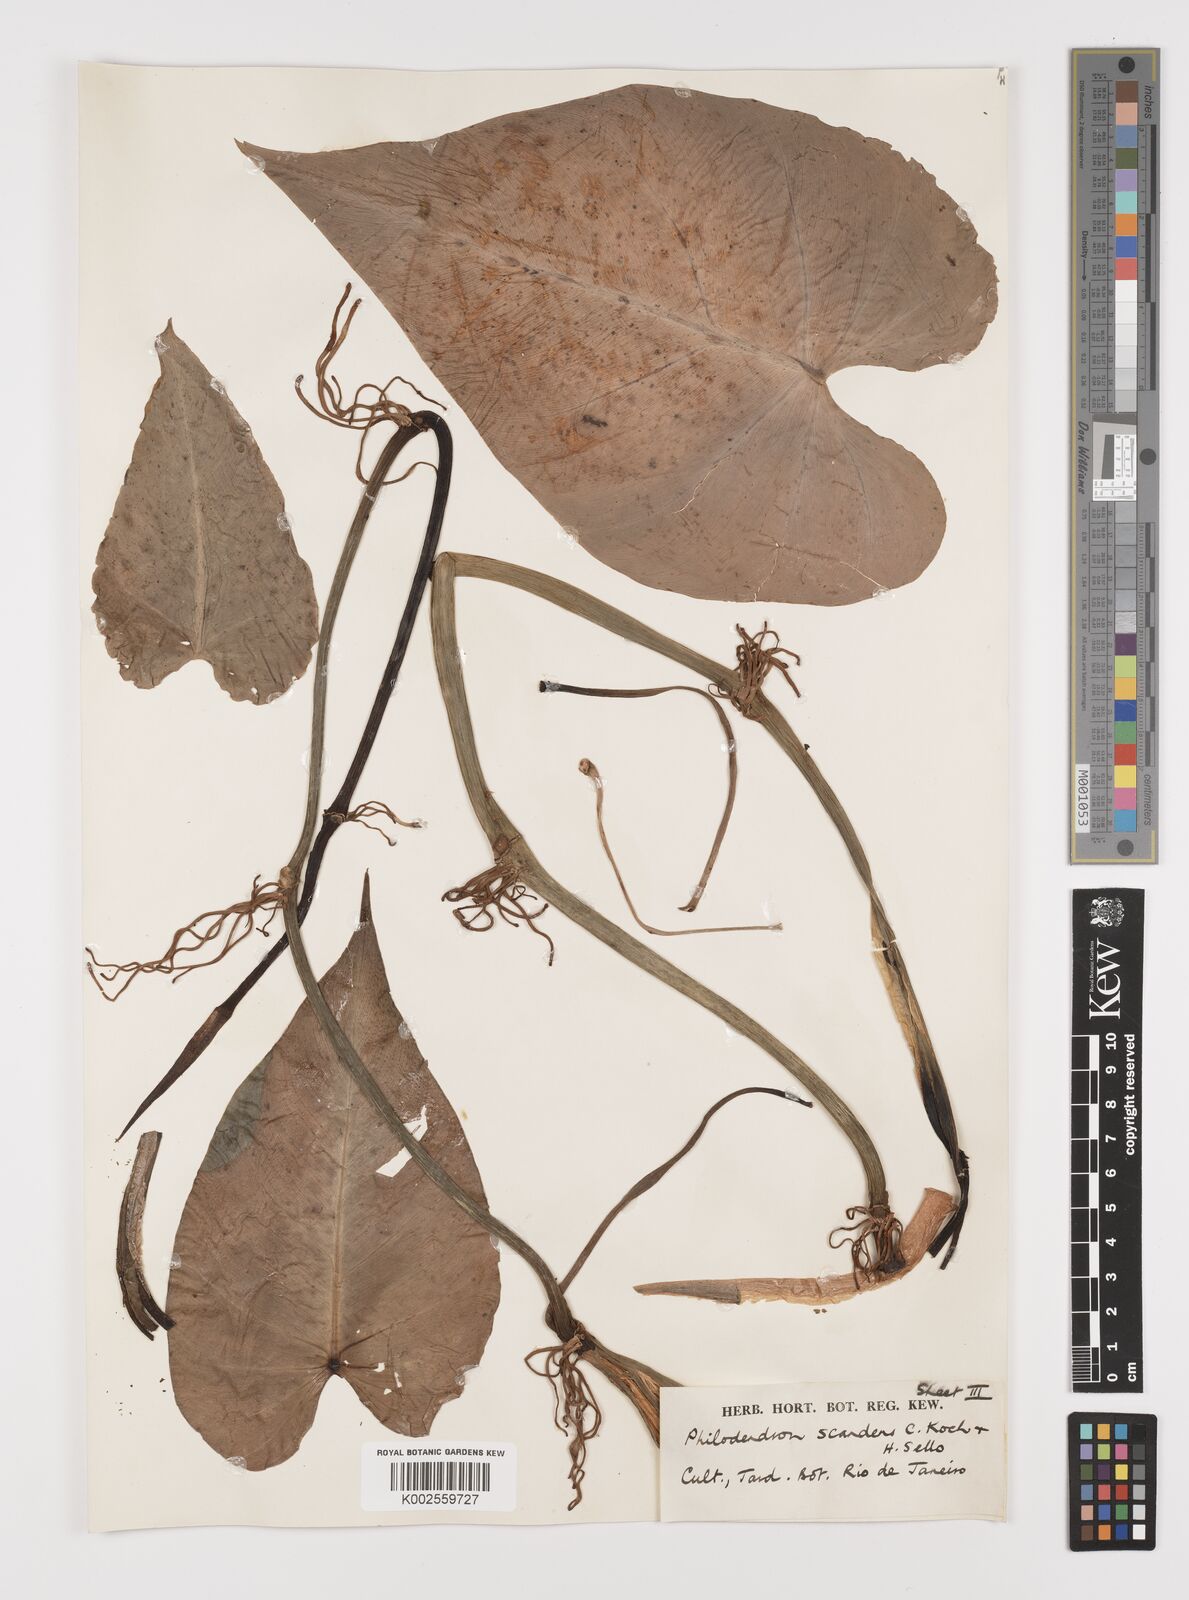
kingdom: Plantae
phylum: Tracheophyta
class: Liliopsida
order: Alismatales
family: Araceae
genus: Philodendron
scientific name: Philodendron hederaceum
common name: Vilevine
